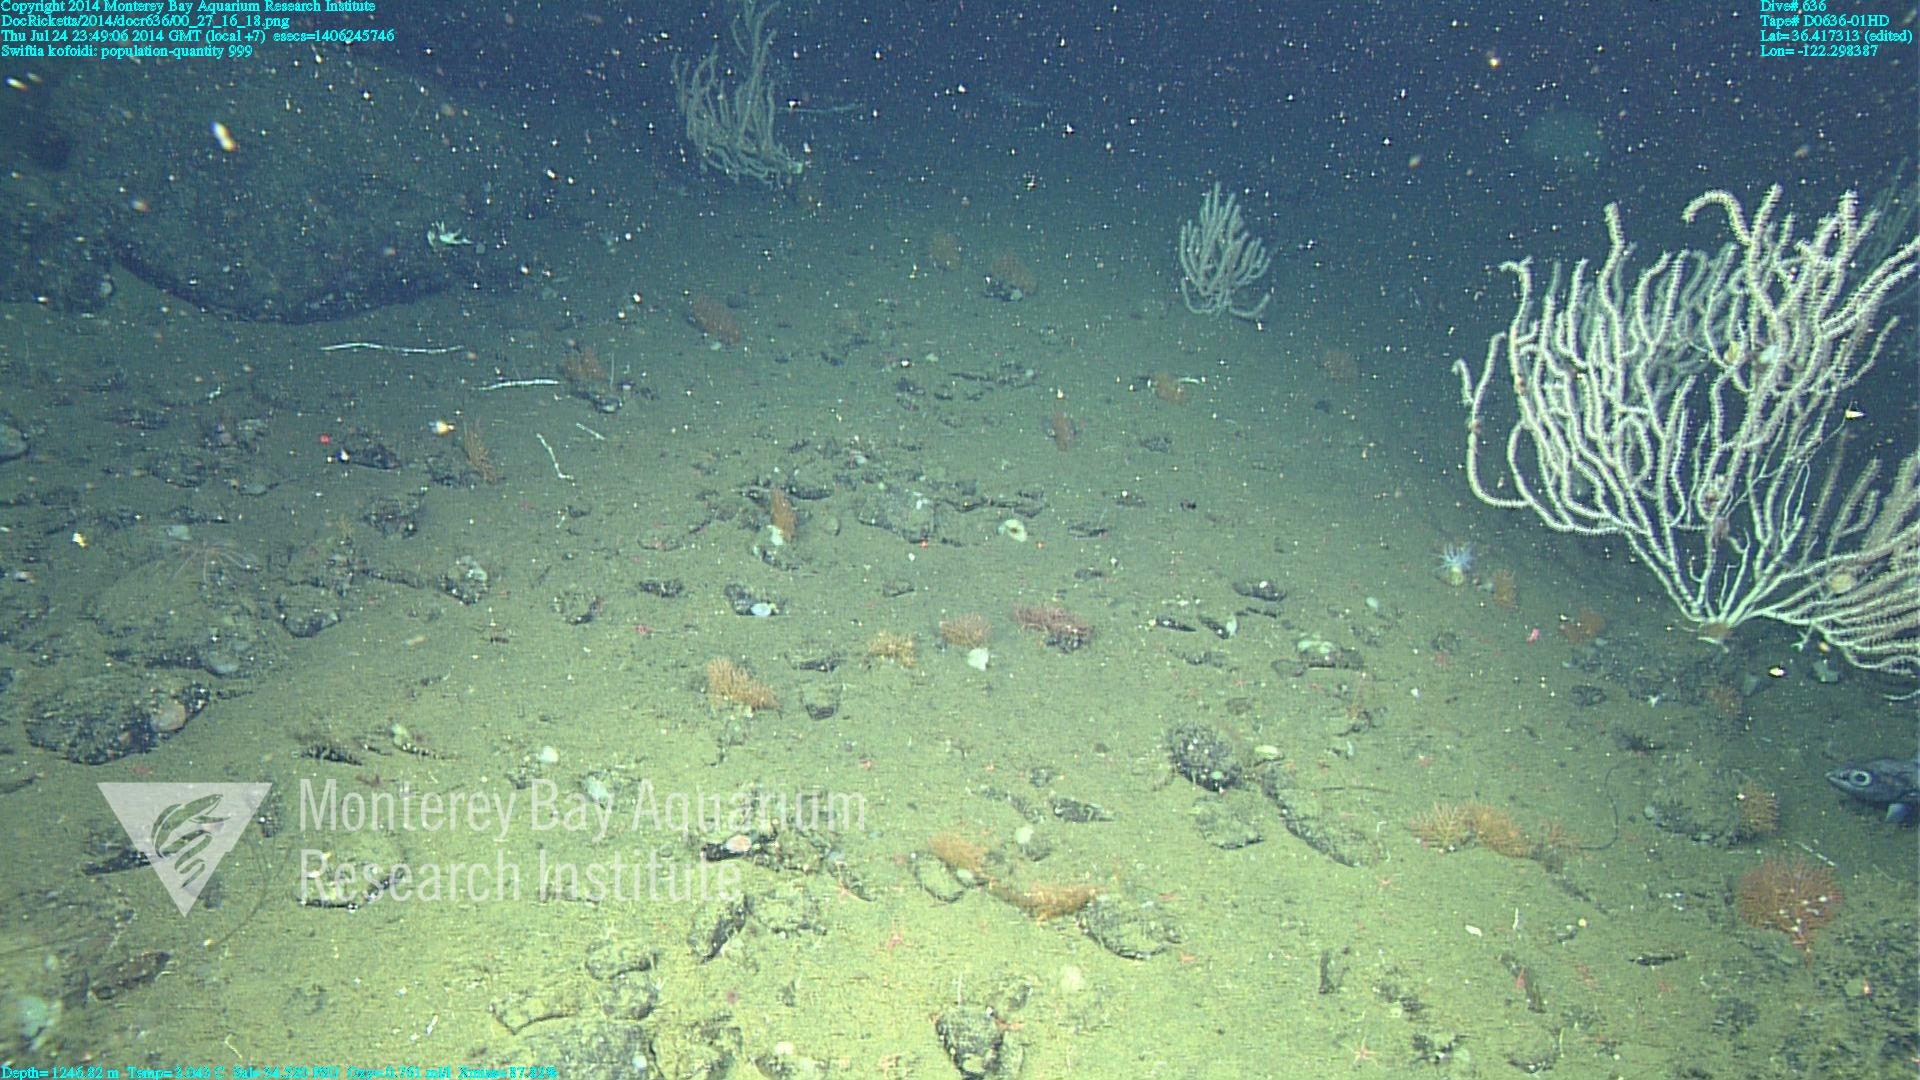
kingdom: Animalia
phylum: Cnidaria
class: Anthozoa
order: Malacalcyonacea
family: Gorgoniidae
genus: Callistephanus
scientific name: Callistephanus kofoidi
